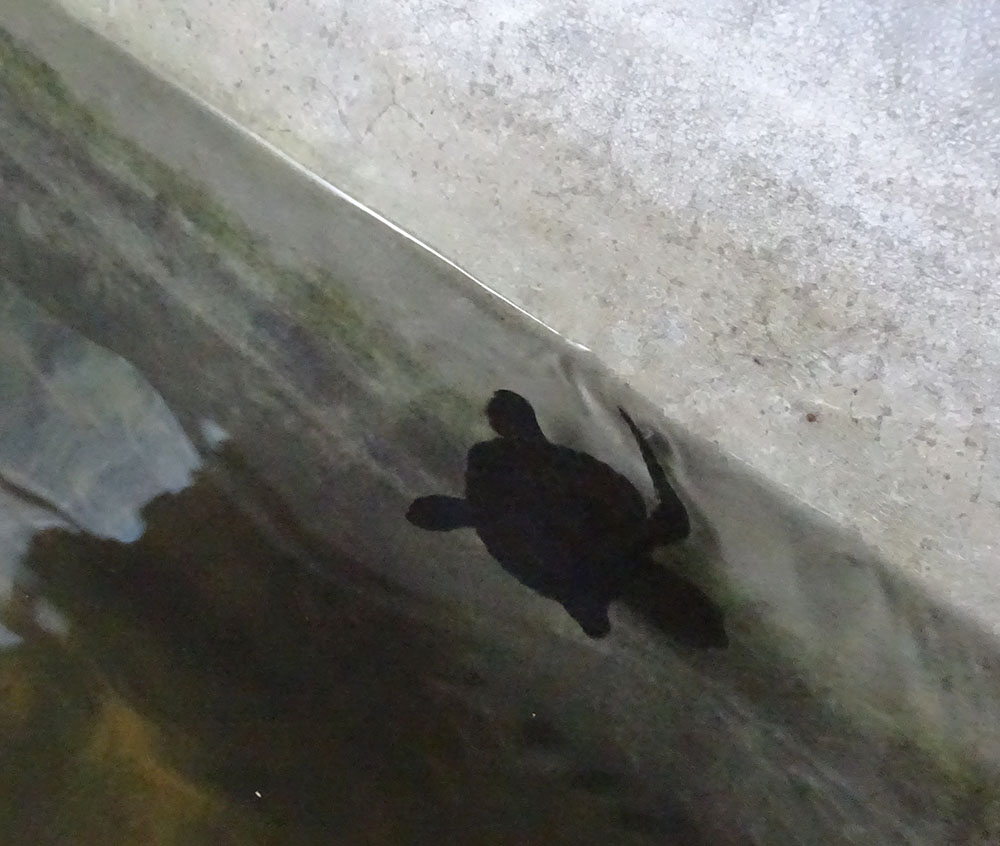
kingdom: Animalia
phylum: Chordata
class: Testudines
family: Cheloniidae
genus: Lepidochelys
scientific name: Lepidochelys olivacea
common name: Olive ridley
